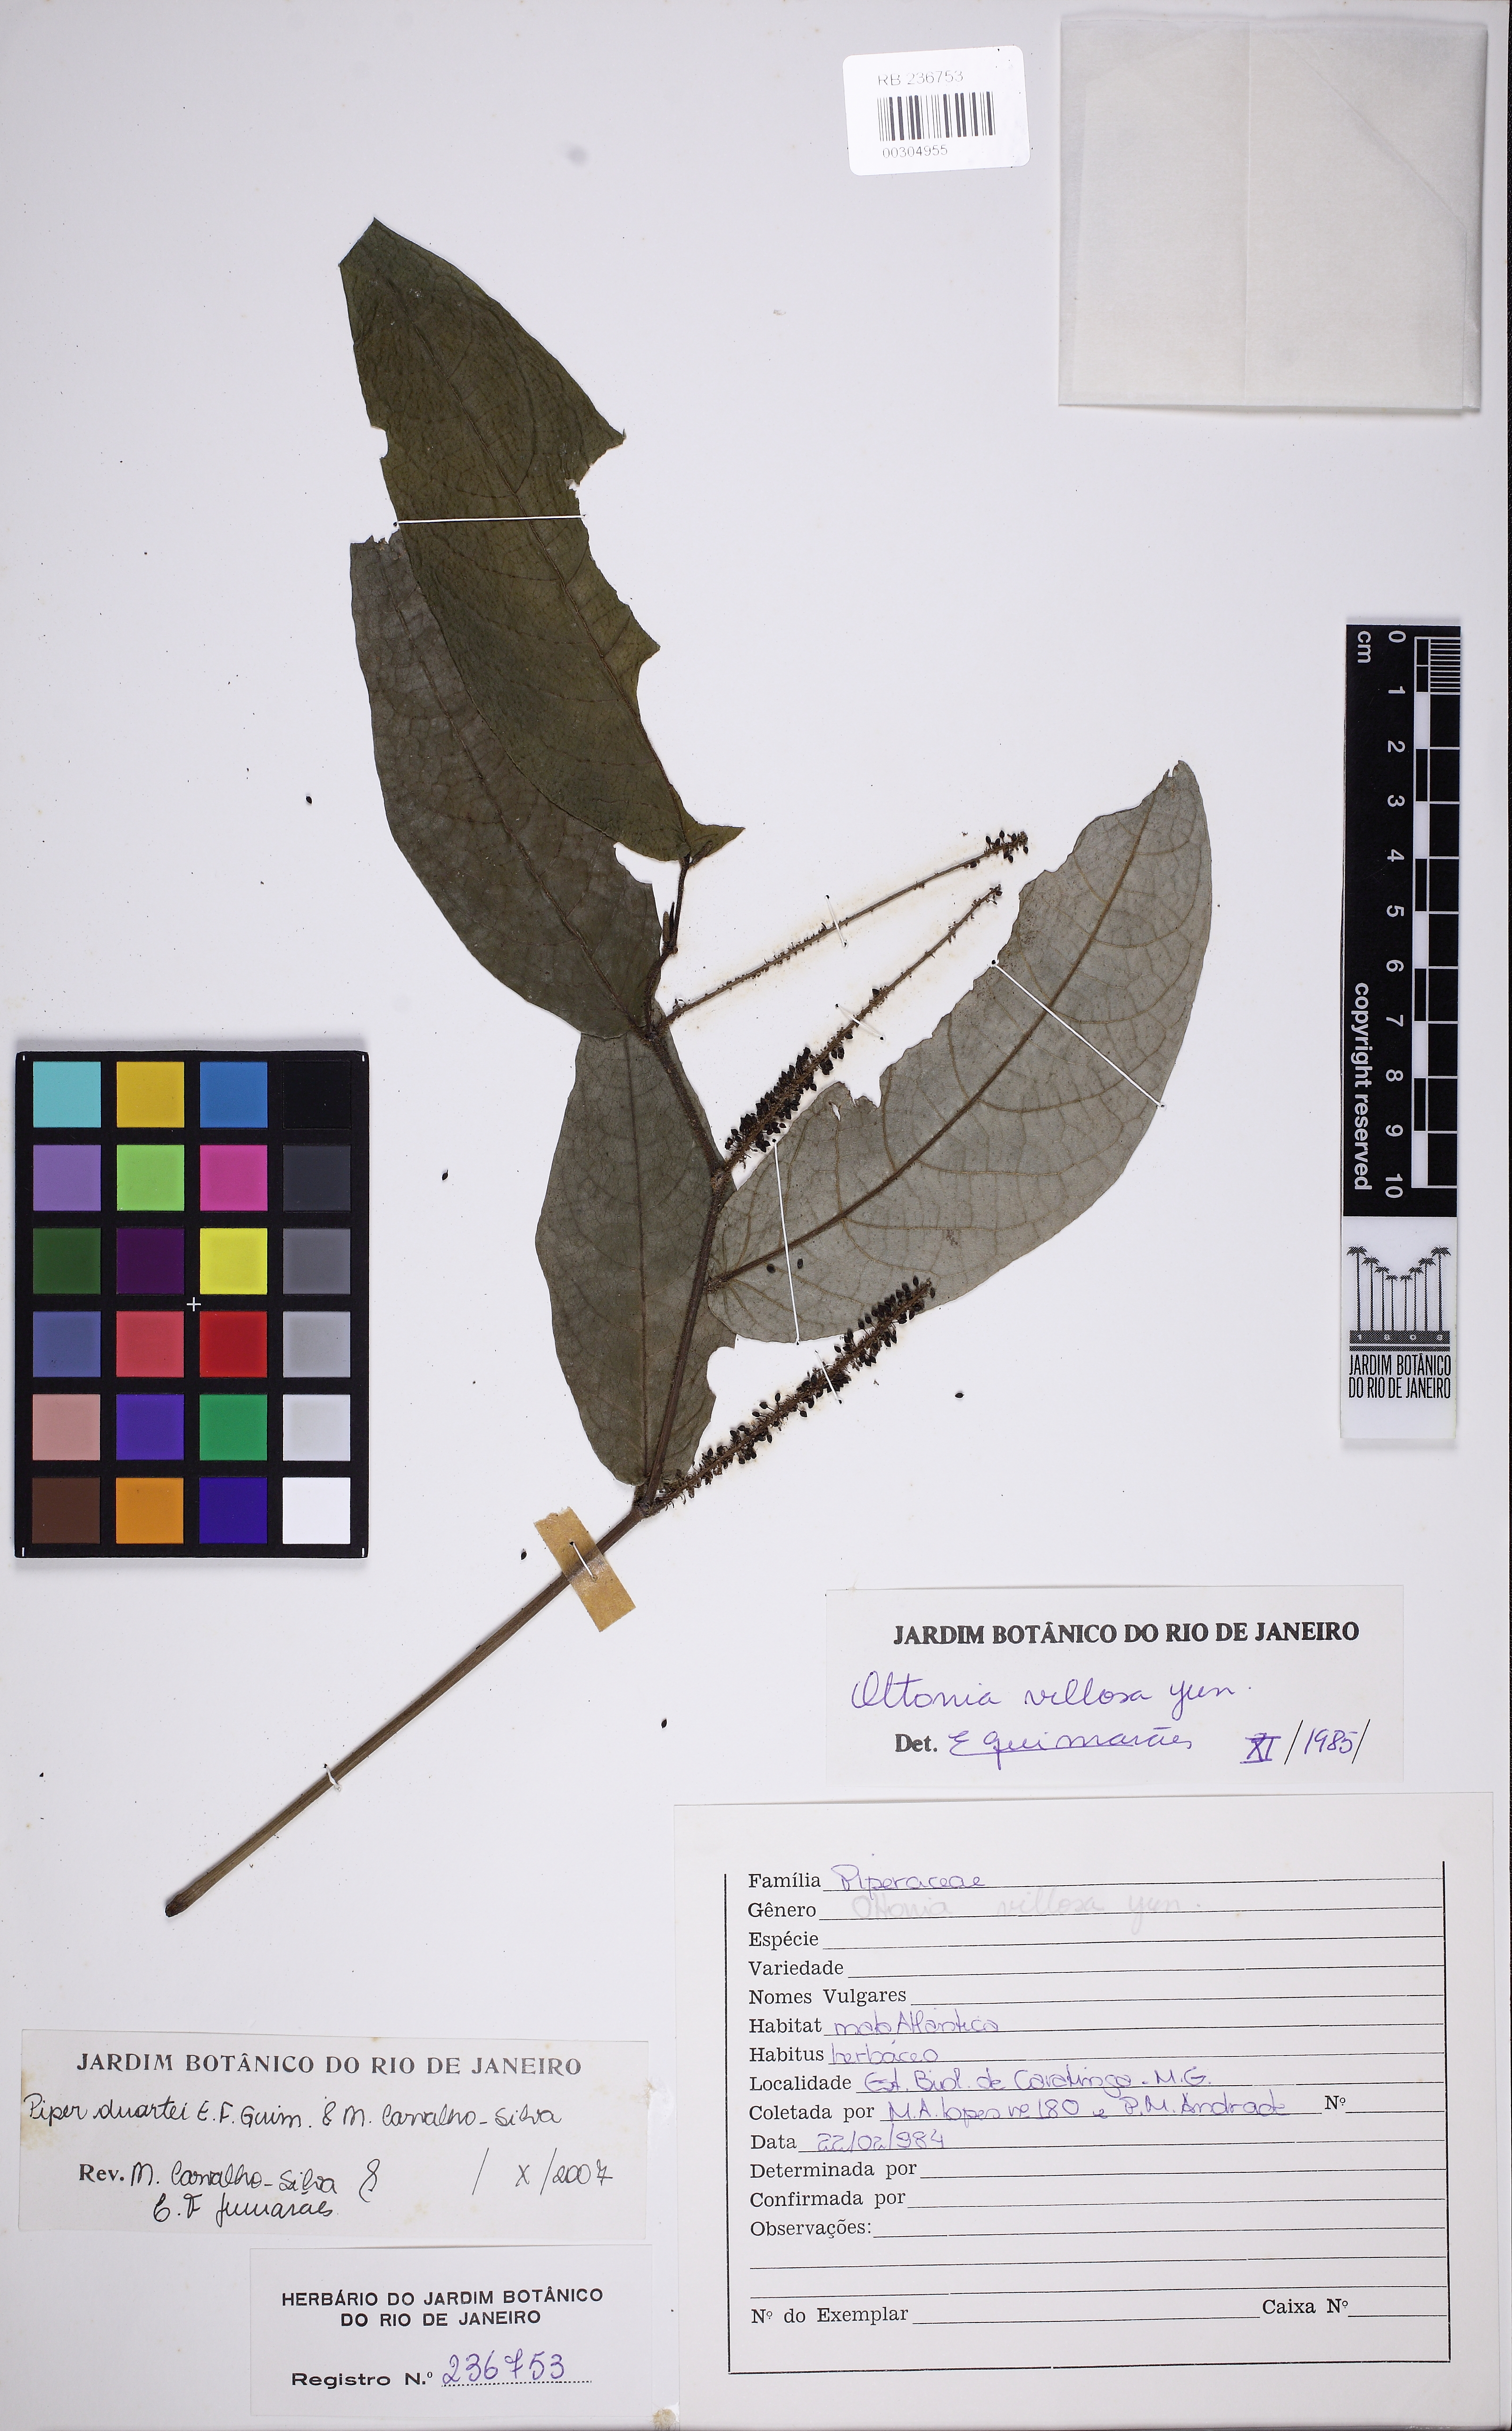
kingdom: Plantae
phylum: Tracheophyta
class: Magnoliopsida
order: Piperales
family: Piperaceae
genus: Piper
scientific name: Piper duartei
